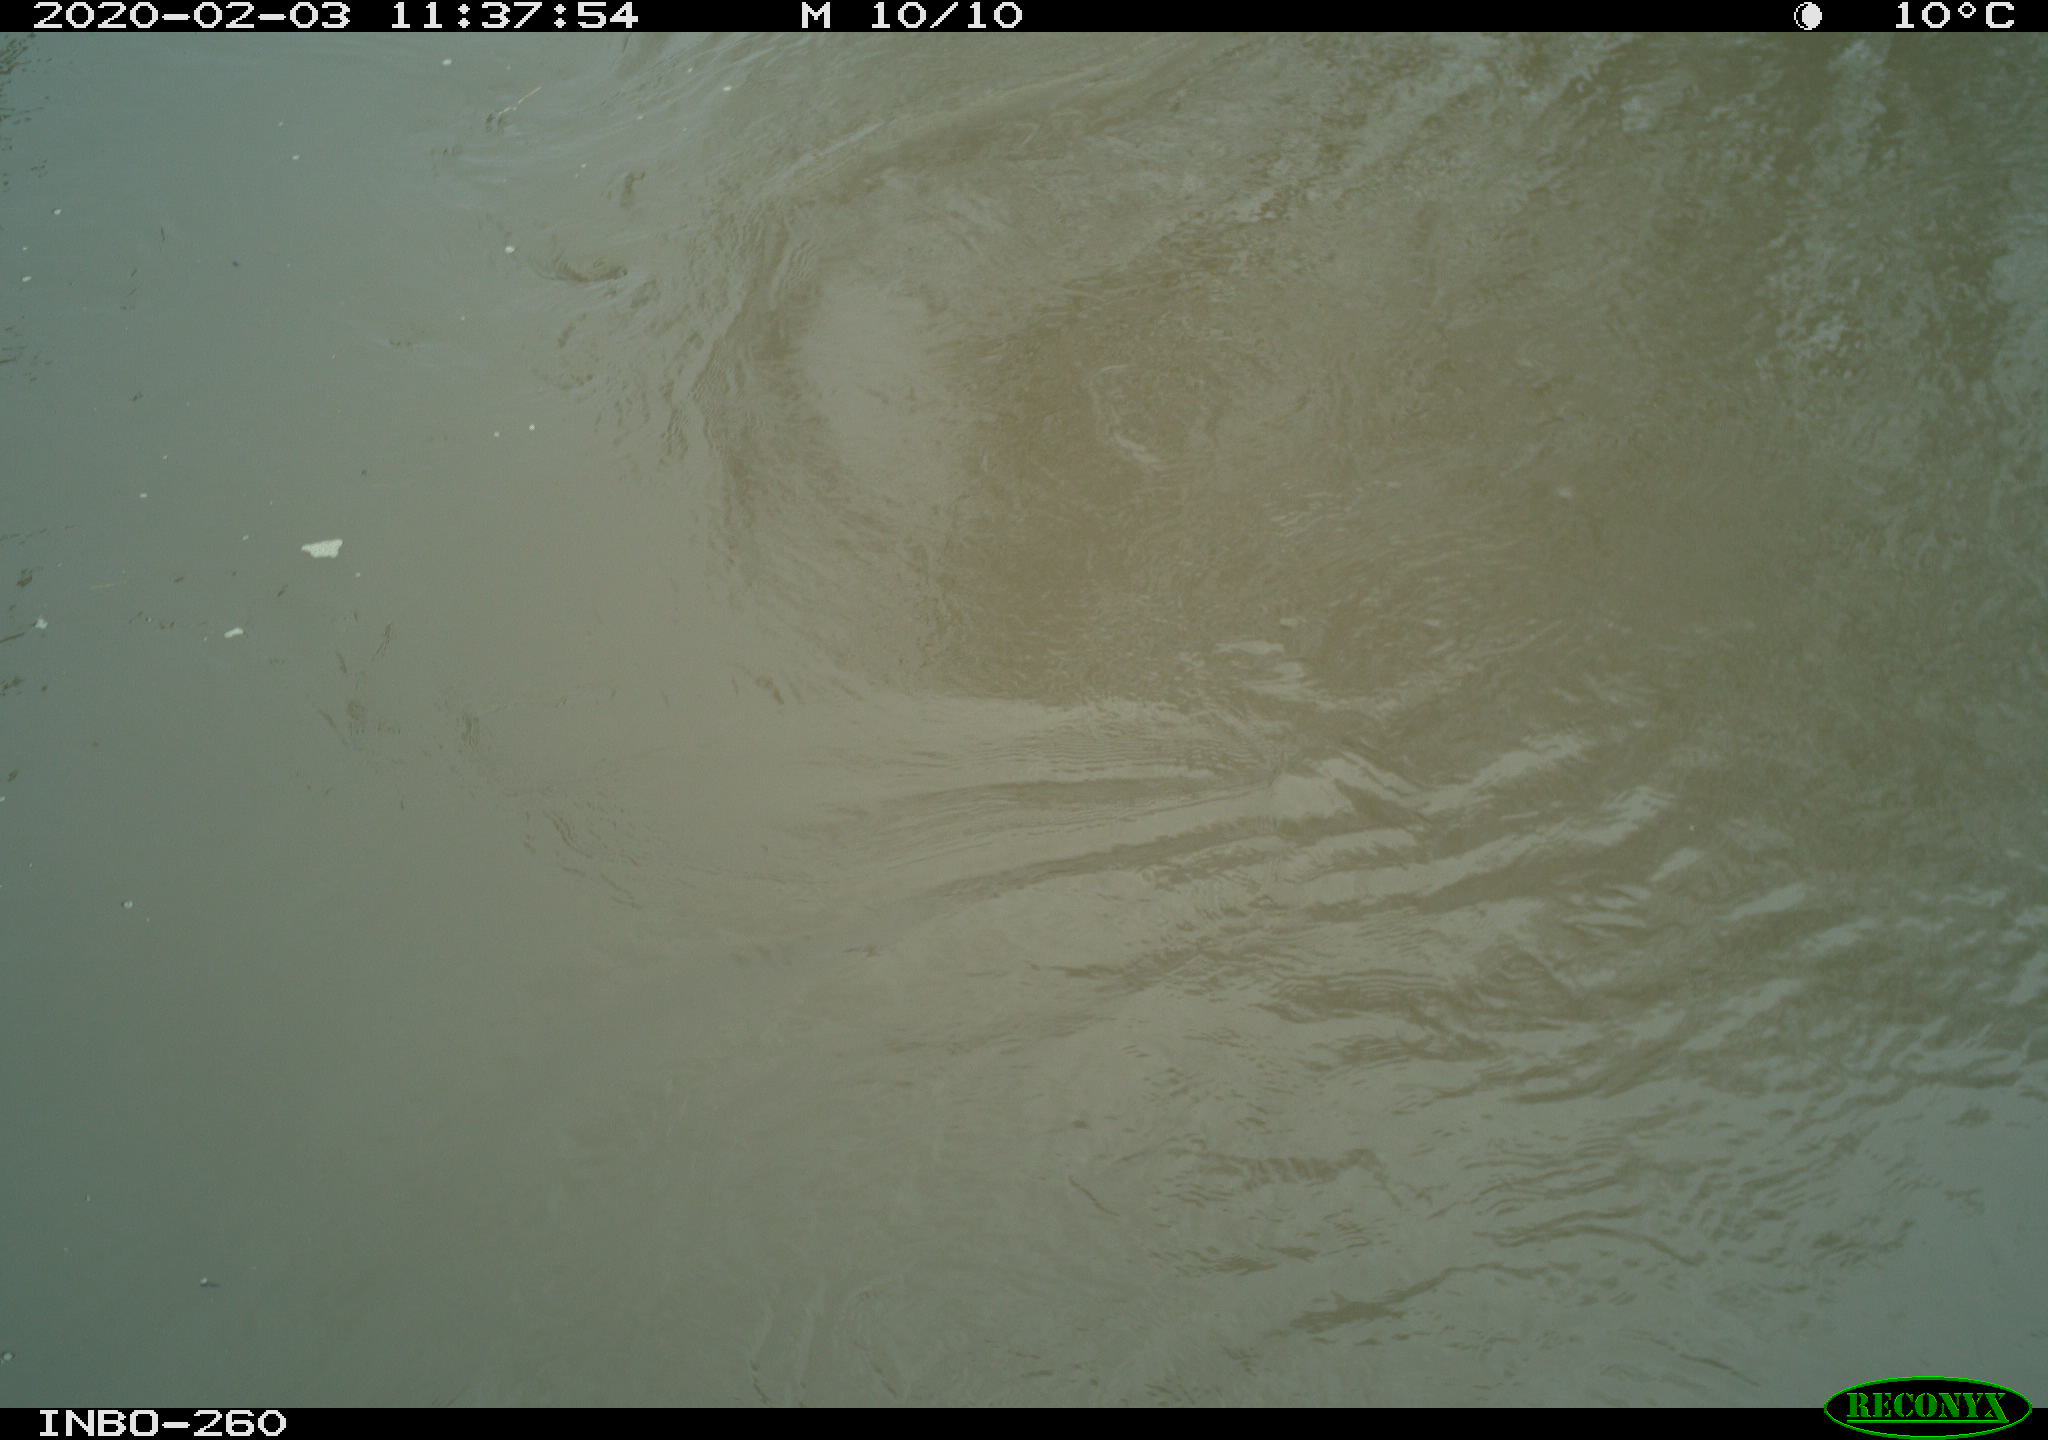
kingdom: Animalia
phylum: Chordata
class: Aves
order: Suliformes
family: Phalacrocoracidae
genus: Phalacrocorax
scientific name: Phalacrocorax carbo
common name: Great cormorant
